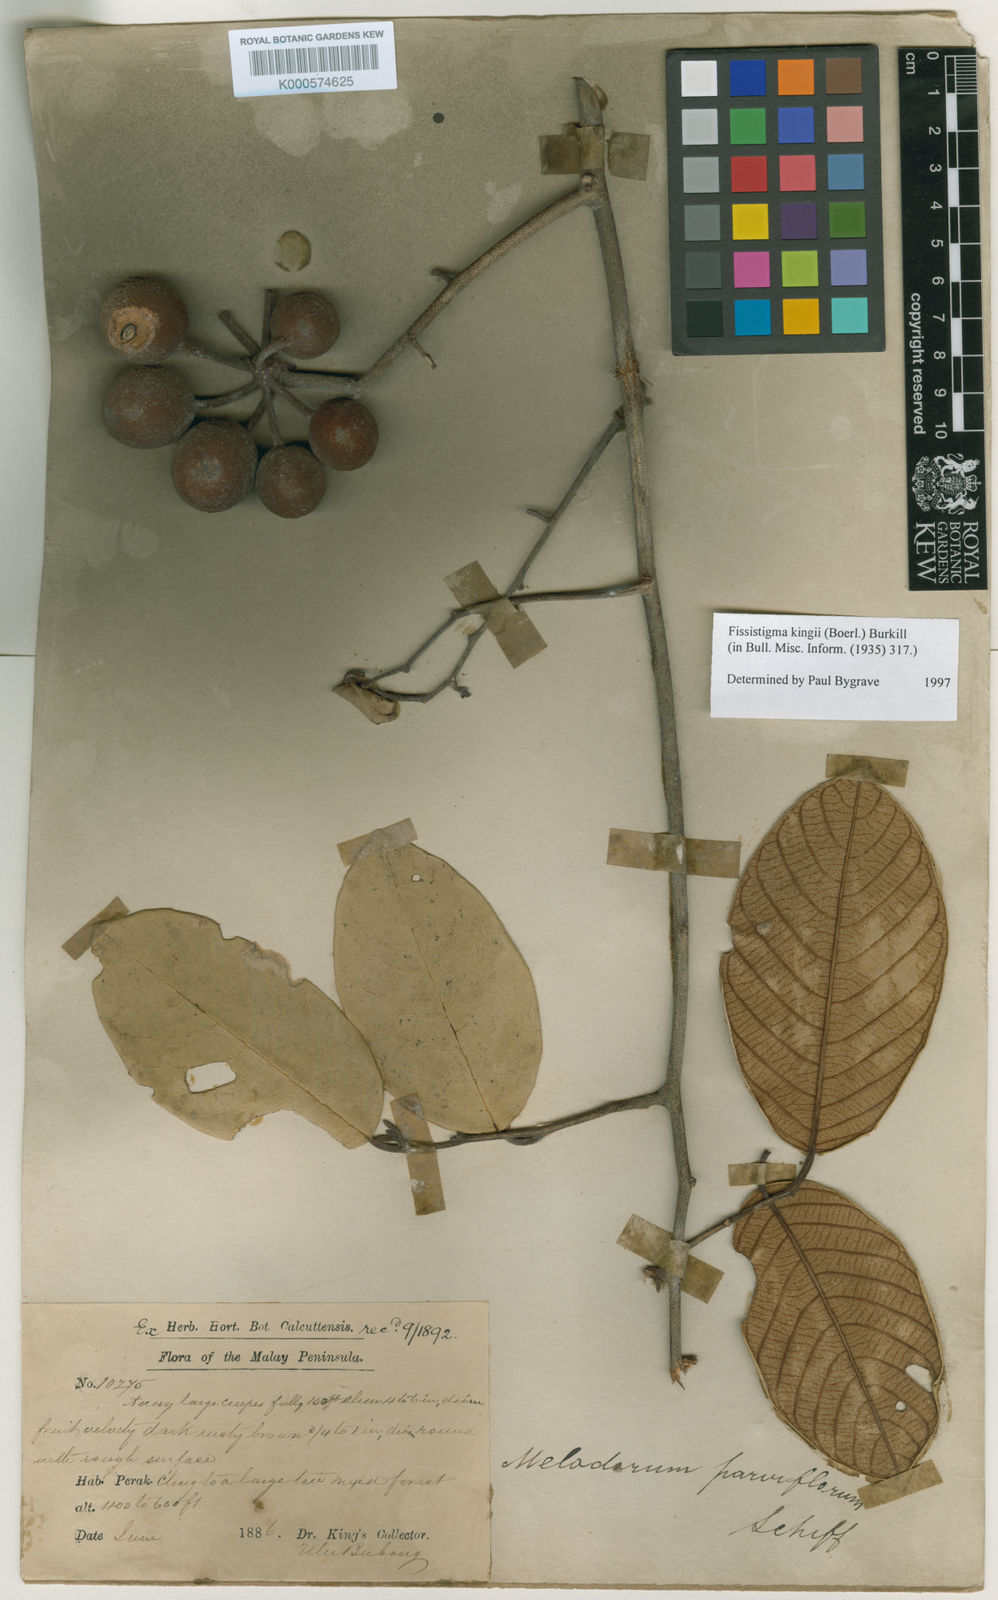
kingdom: Plantae
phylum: Tracheophyta
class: Magnoliopsida
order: Magnoliales
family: Annonaceae
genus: Fissistigma
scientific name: Fissistigma kingii
